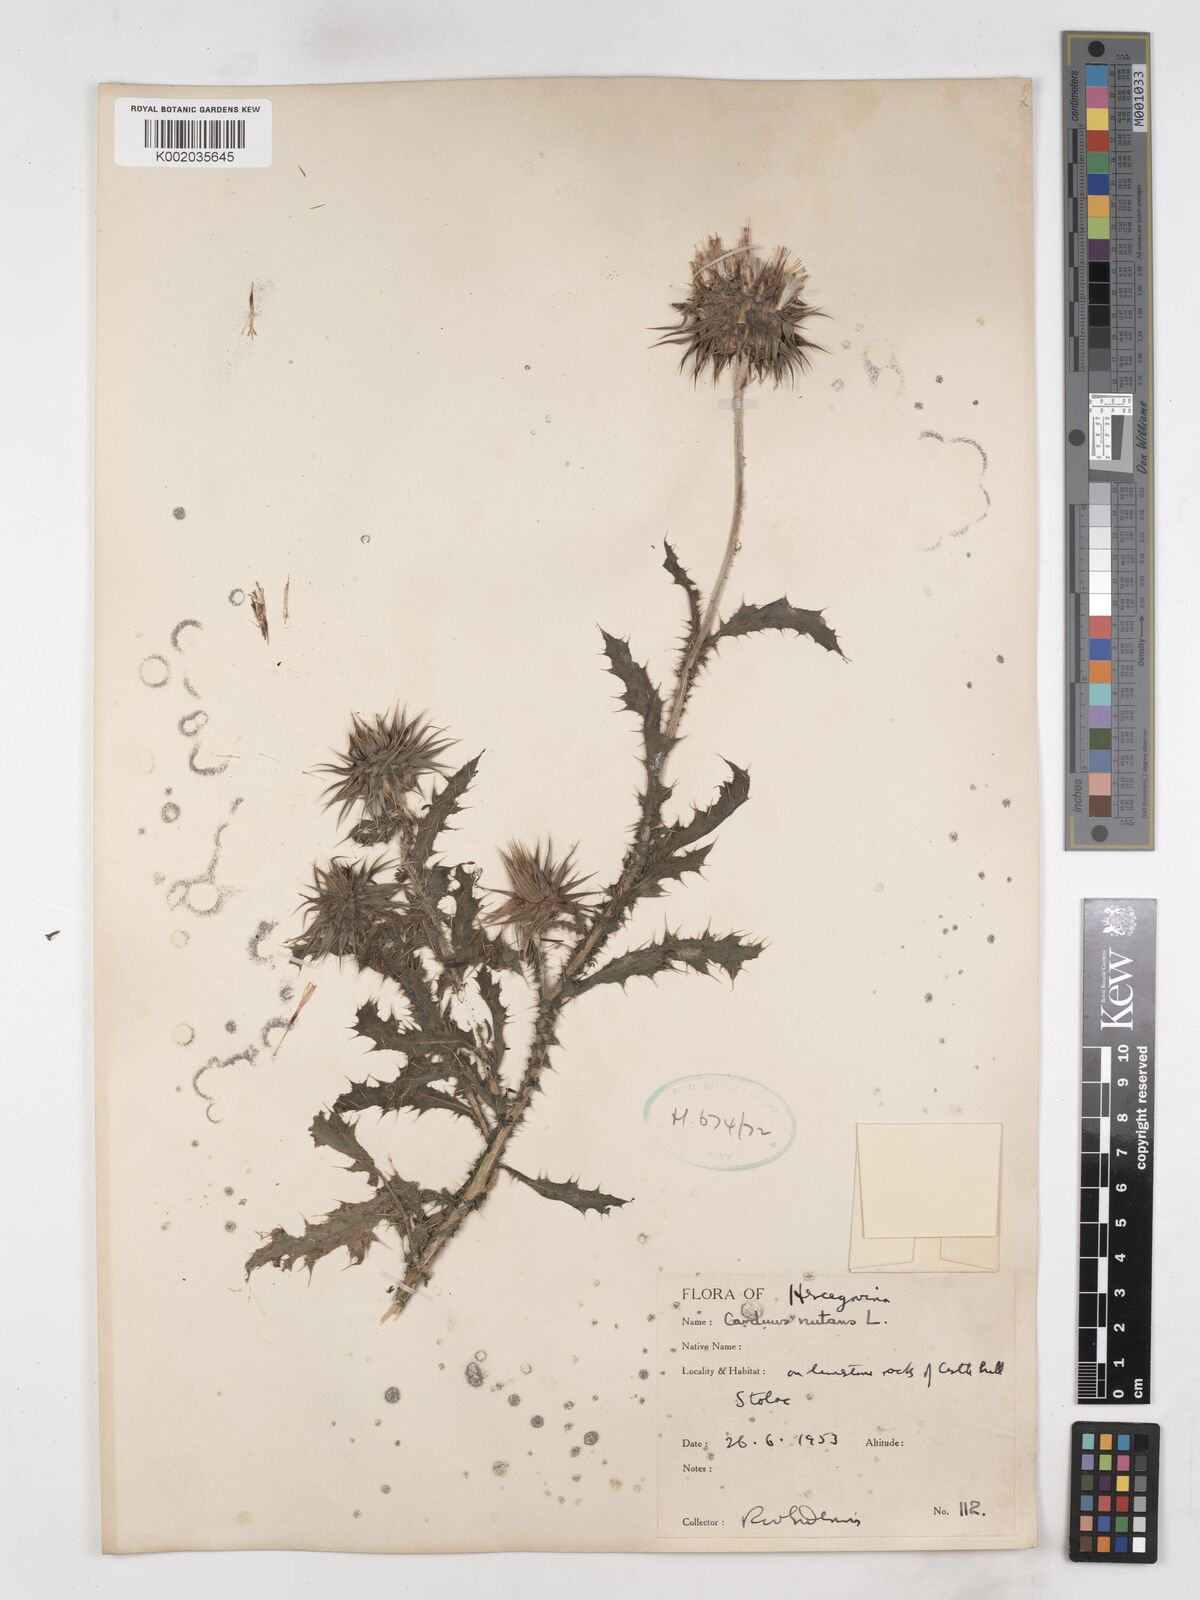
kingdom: Plantae
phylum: Tracheophyta
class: Magnoliopsida
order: Asterales
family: Asteraceae
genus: Carduus
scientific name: Carduus nutans
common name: Musk thistle
